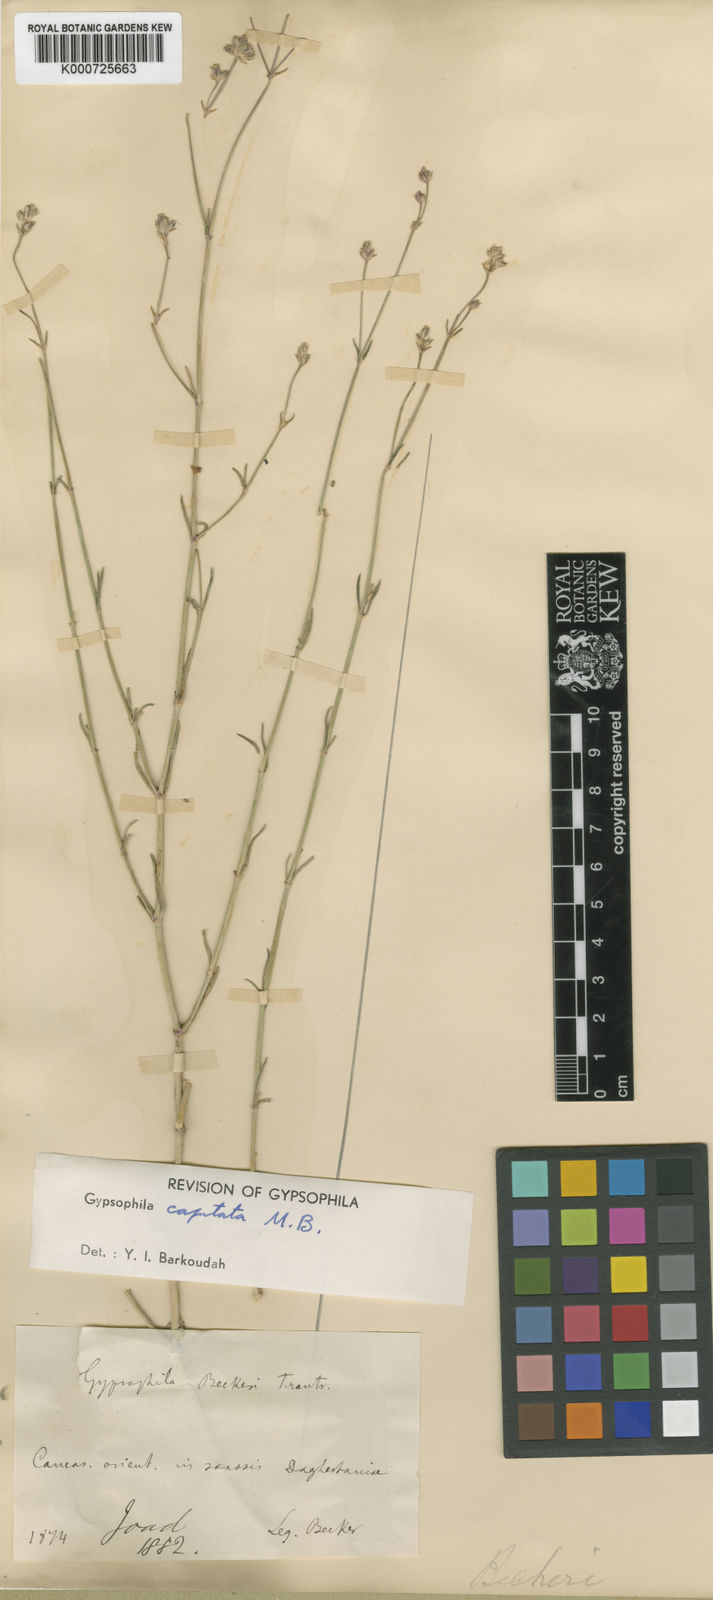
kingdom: Plantae
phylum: Tracheophyta
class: Magnoliopsida
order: Caryophyllales
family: Caryophyllaceae
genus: Gypsophila
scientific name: Gypsophila capitata
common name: Capitate chalk plant
